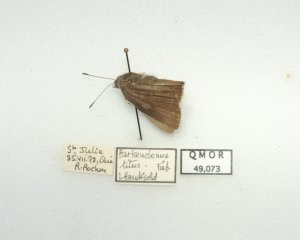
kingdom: Animalia
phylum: Arthropoda
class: Insecta
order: Lepidoptera
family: Lycaenidae
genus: Harkenclenus
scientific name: Harkenclenus titus
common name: Coral Hairstreak
